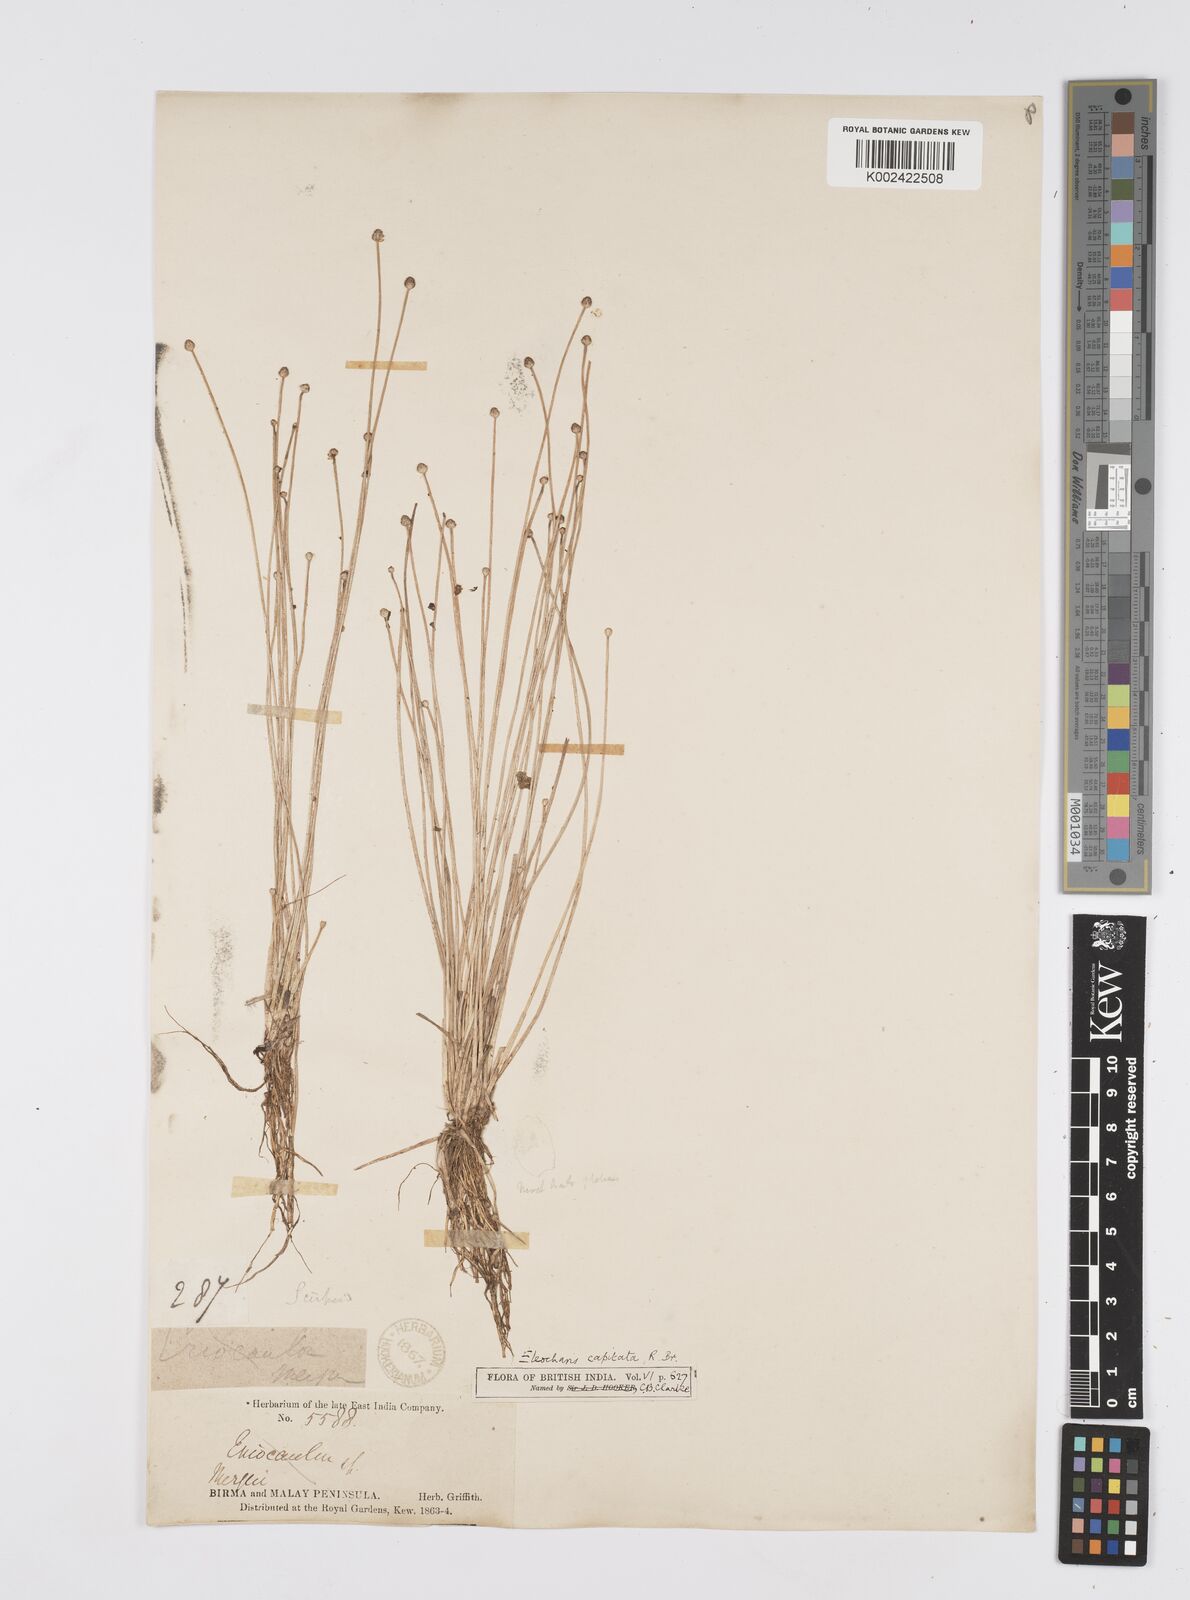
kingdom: Plantae
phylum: Tracheophyta
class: Liliopsida
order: Poales
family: Cyperaceae
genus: Eleocharis
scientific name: Eleocharis geniculata
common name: Canada spikesedge
